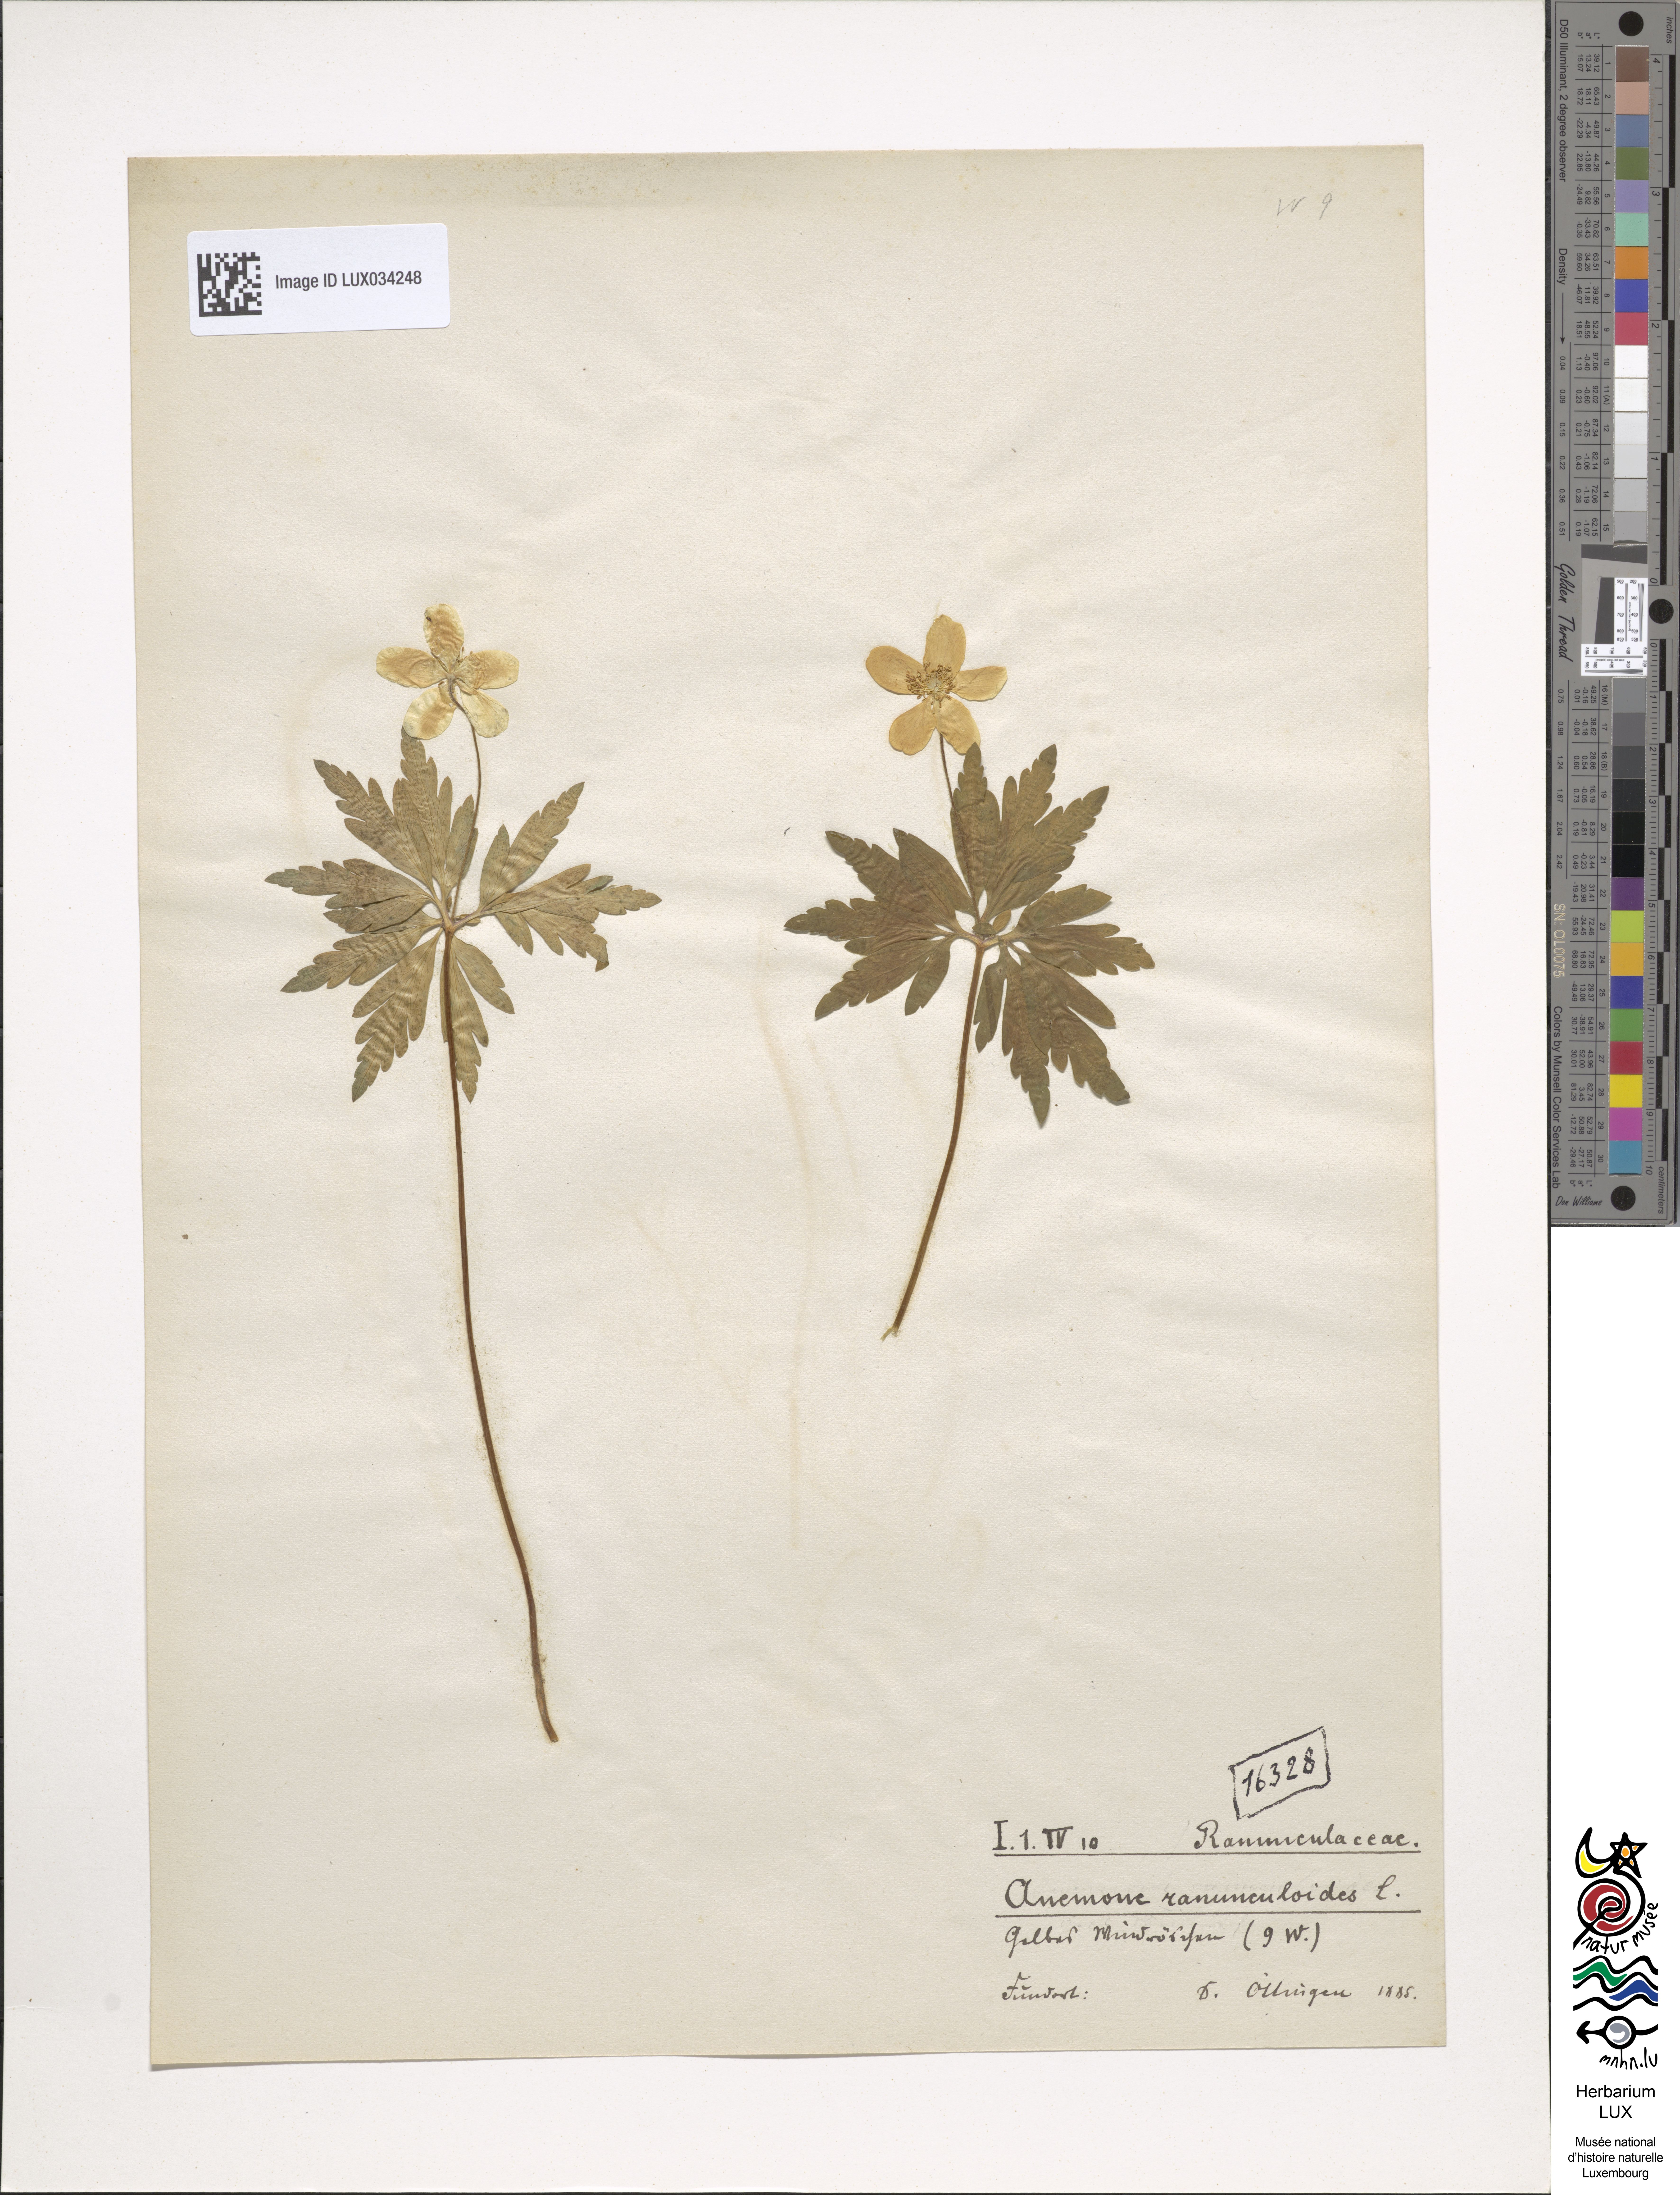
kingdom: Plantae
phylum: Tracheophyta
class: Magnoliopsida
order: Ranunculales
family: Ranunculaceae
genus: Anemone
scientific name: Anemone ranunculoides
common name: Yellow anemone
